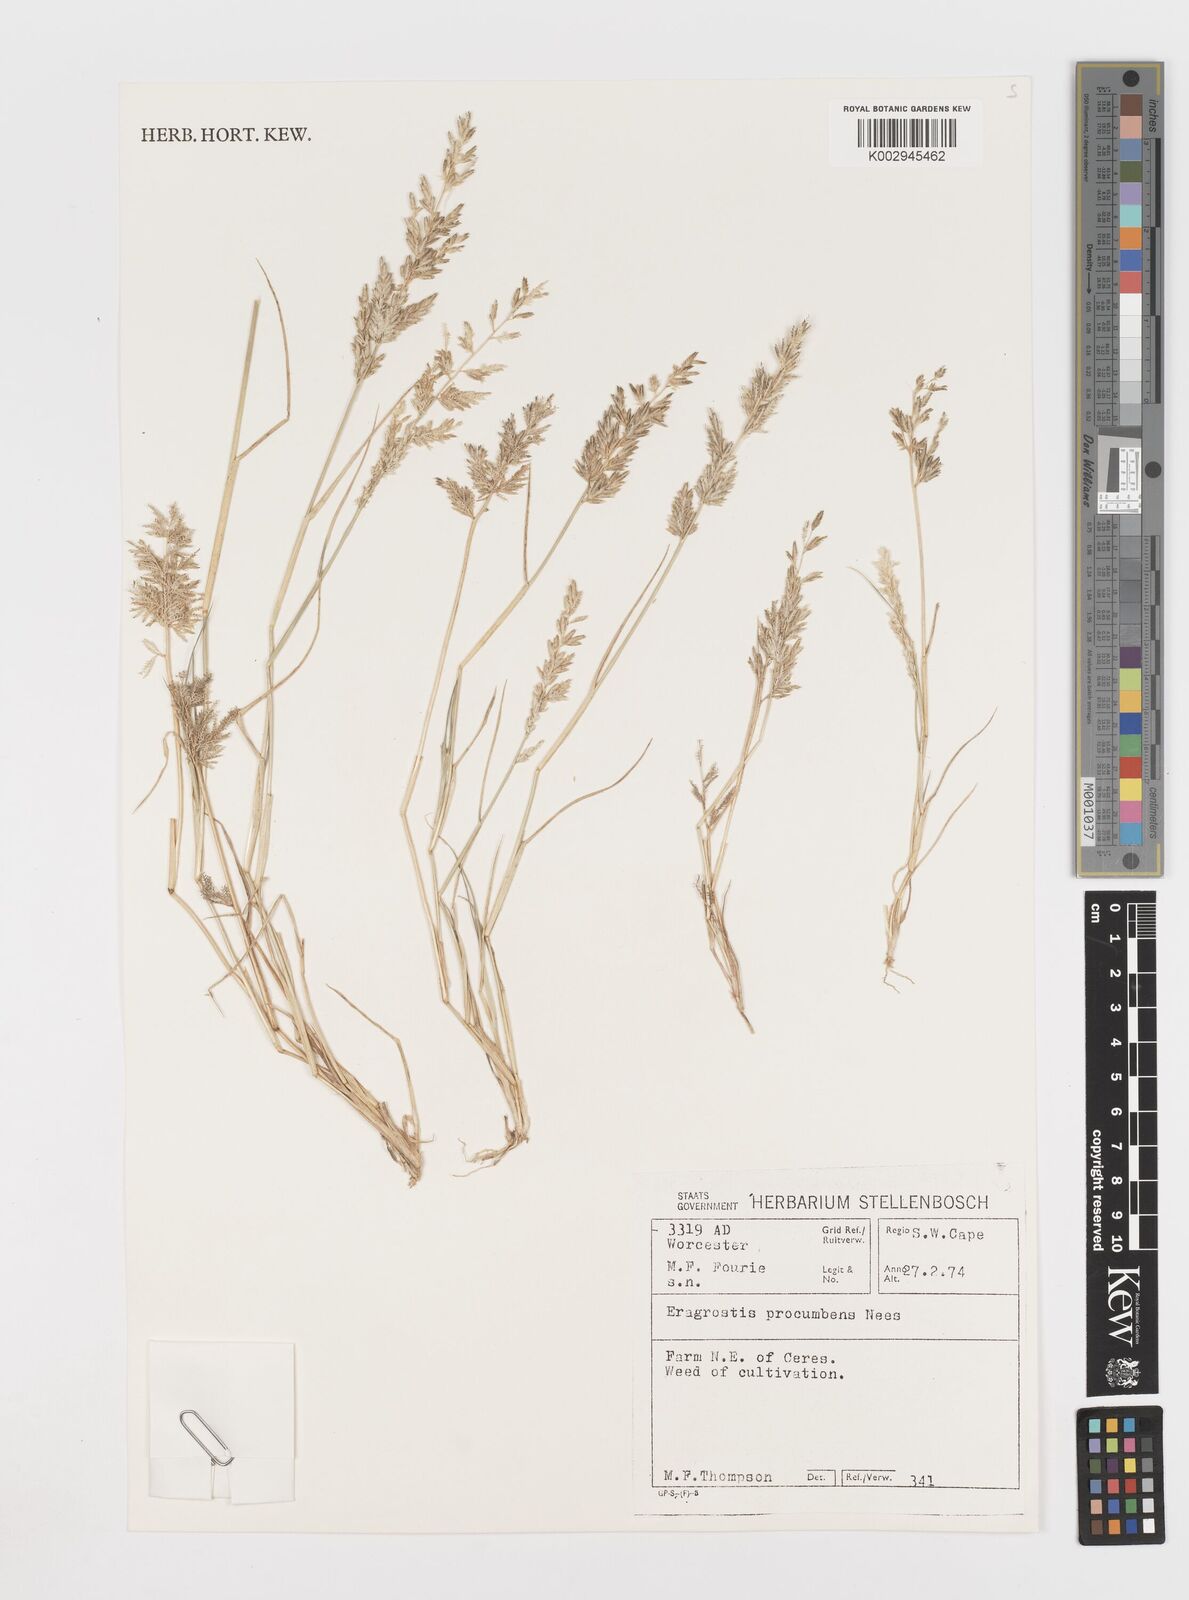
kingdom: Plantae
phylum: Tracheophyta
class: Liliopsida
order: Poales
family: Poaceae
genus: Eragrostis
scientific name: Eragrostis procumbens
